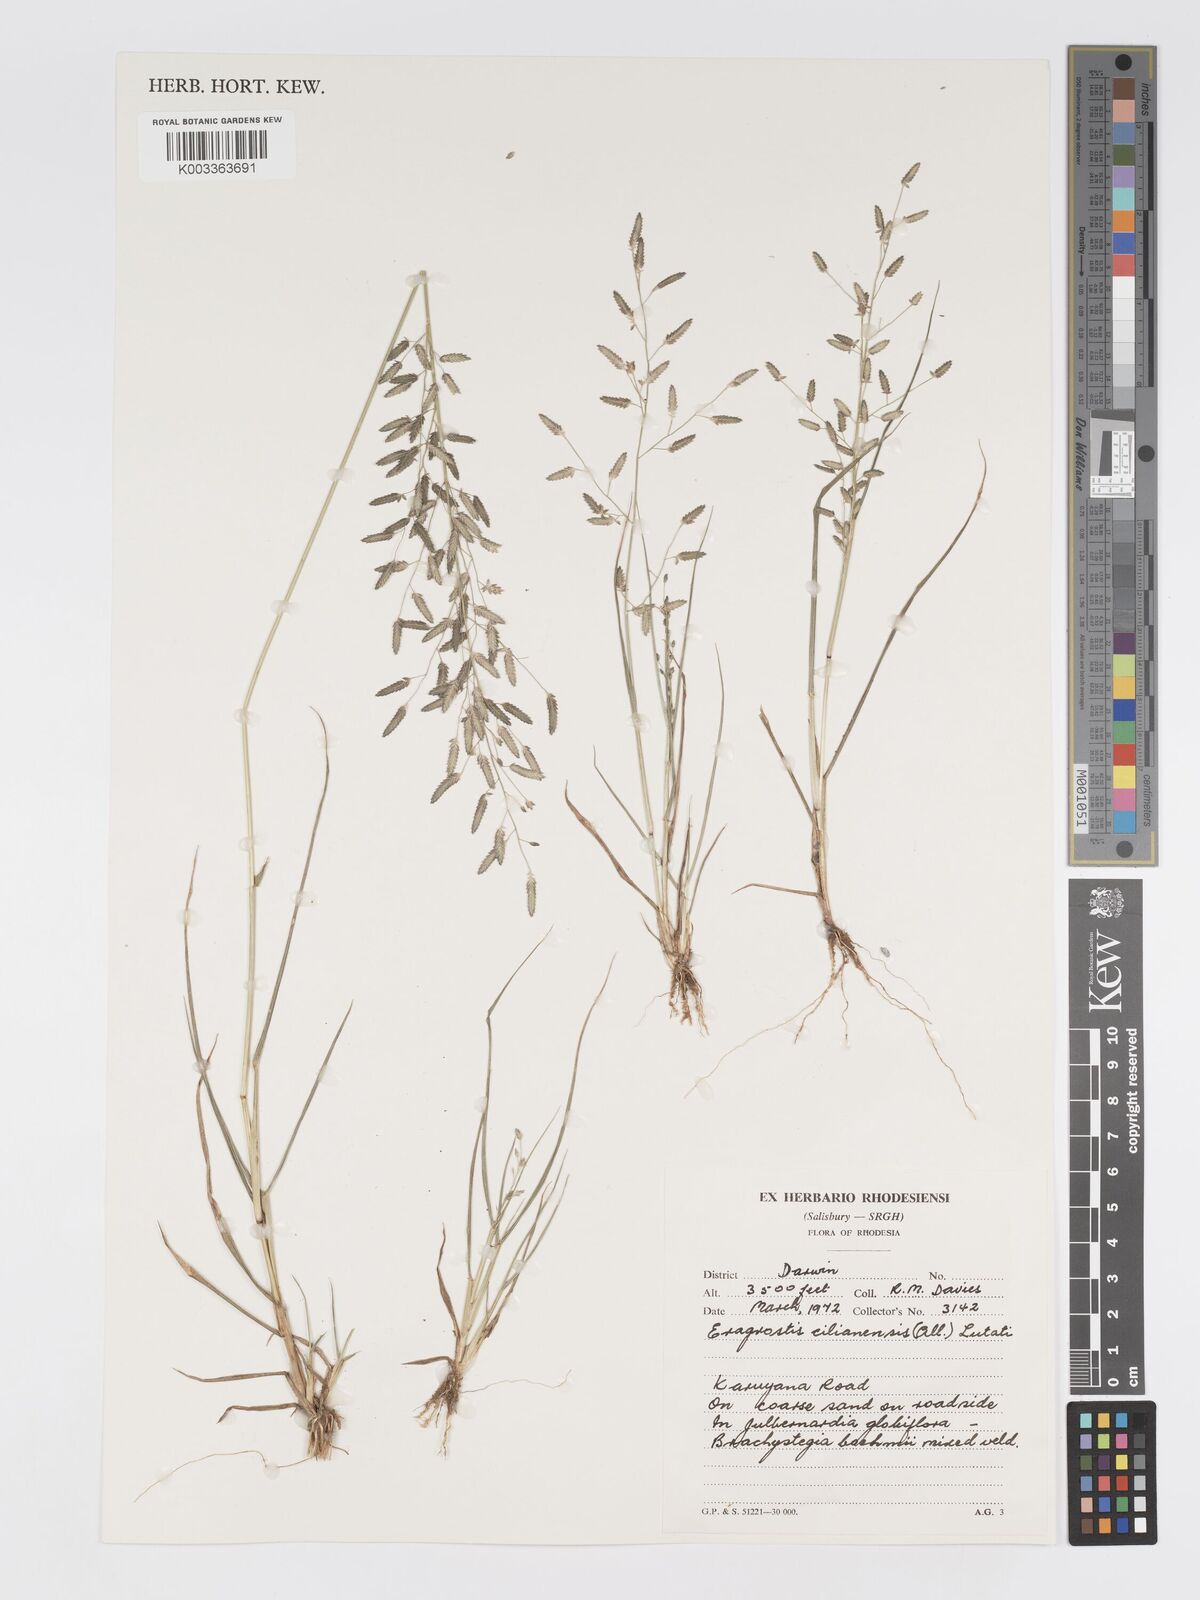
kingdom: Plantae
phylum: Tracheophyta
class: Liliopsida
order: Poales
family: Poaceae
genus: Eragrostis
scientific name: Eragrostis cilianensis
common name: Stinkgrass
